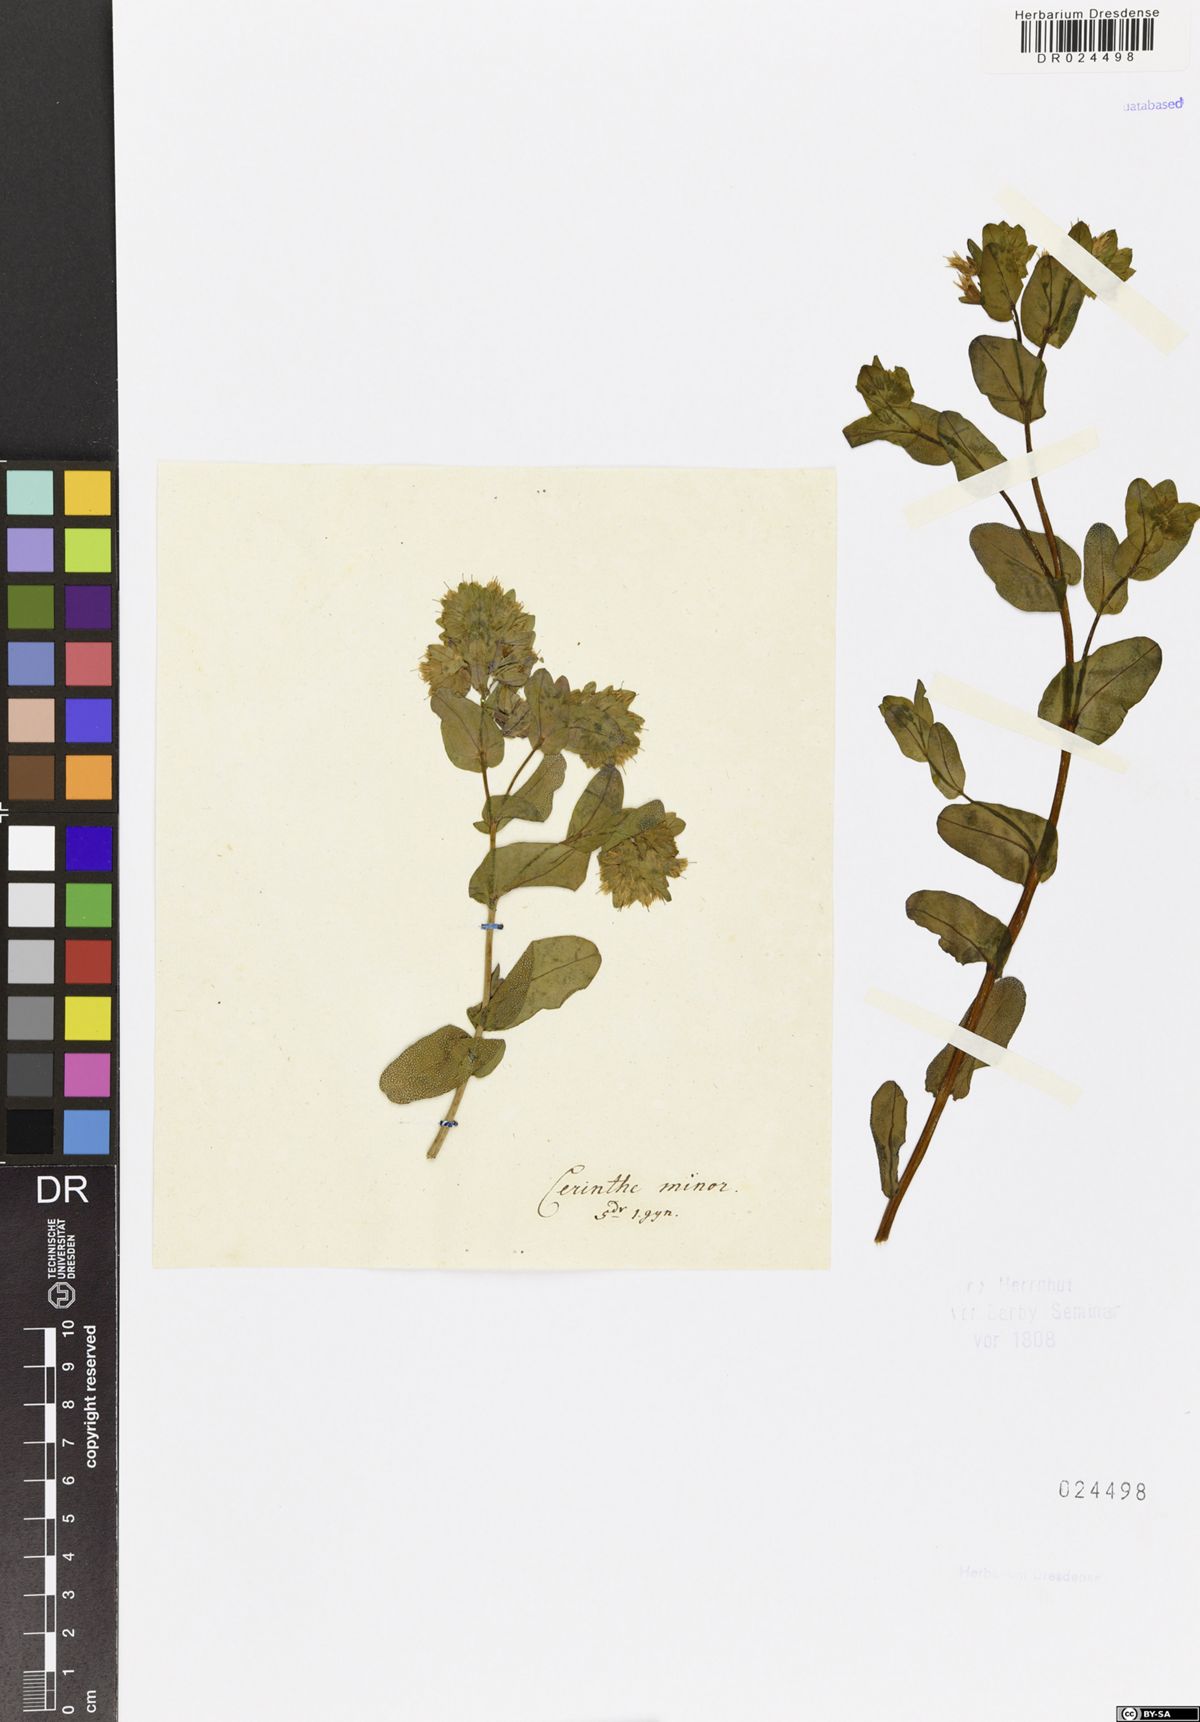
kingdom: Plantae
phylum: Tracheophyta
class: Magnoliopsida
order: Boraginales
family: Boraginaceae
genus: Cerinthe
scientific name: Cerinthe minor
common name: Lesser honeywort
